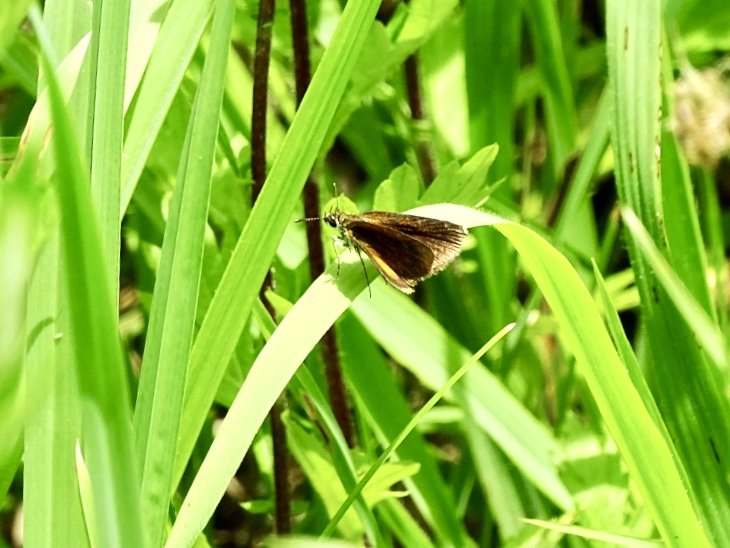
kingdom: Animalia
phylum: Arthropoda
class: Insecta
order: Lepidoptera
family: Hesperiidae
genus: Ancyloxypha
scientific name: Ancyloxypha numitor
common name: Least Skipper
